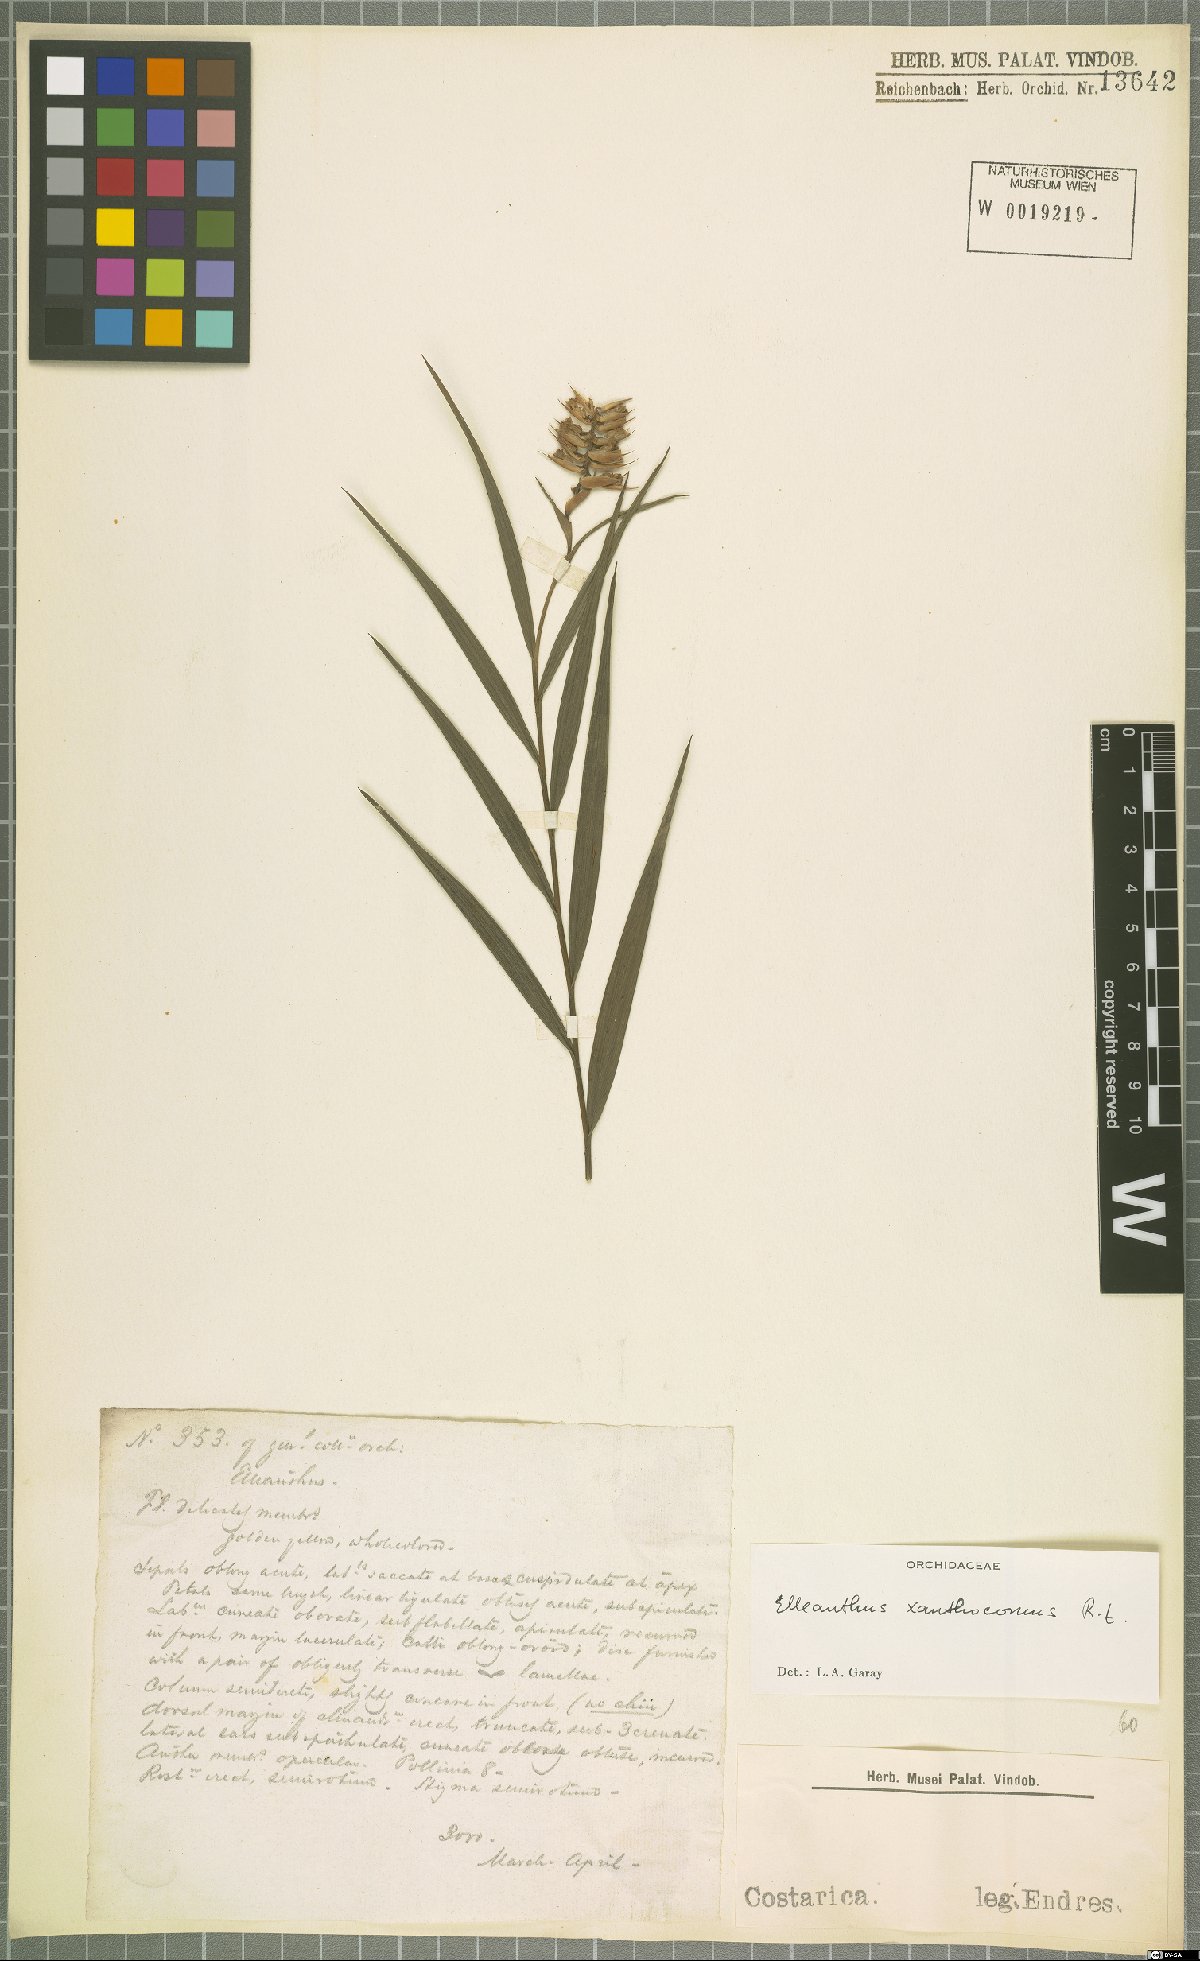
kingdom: Plantae
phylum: Tracheophyta
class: Liliopsida
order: Asparagales
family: Orchidaceae
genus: Elleanthus
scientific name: Elleanthus longibracteatus
